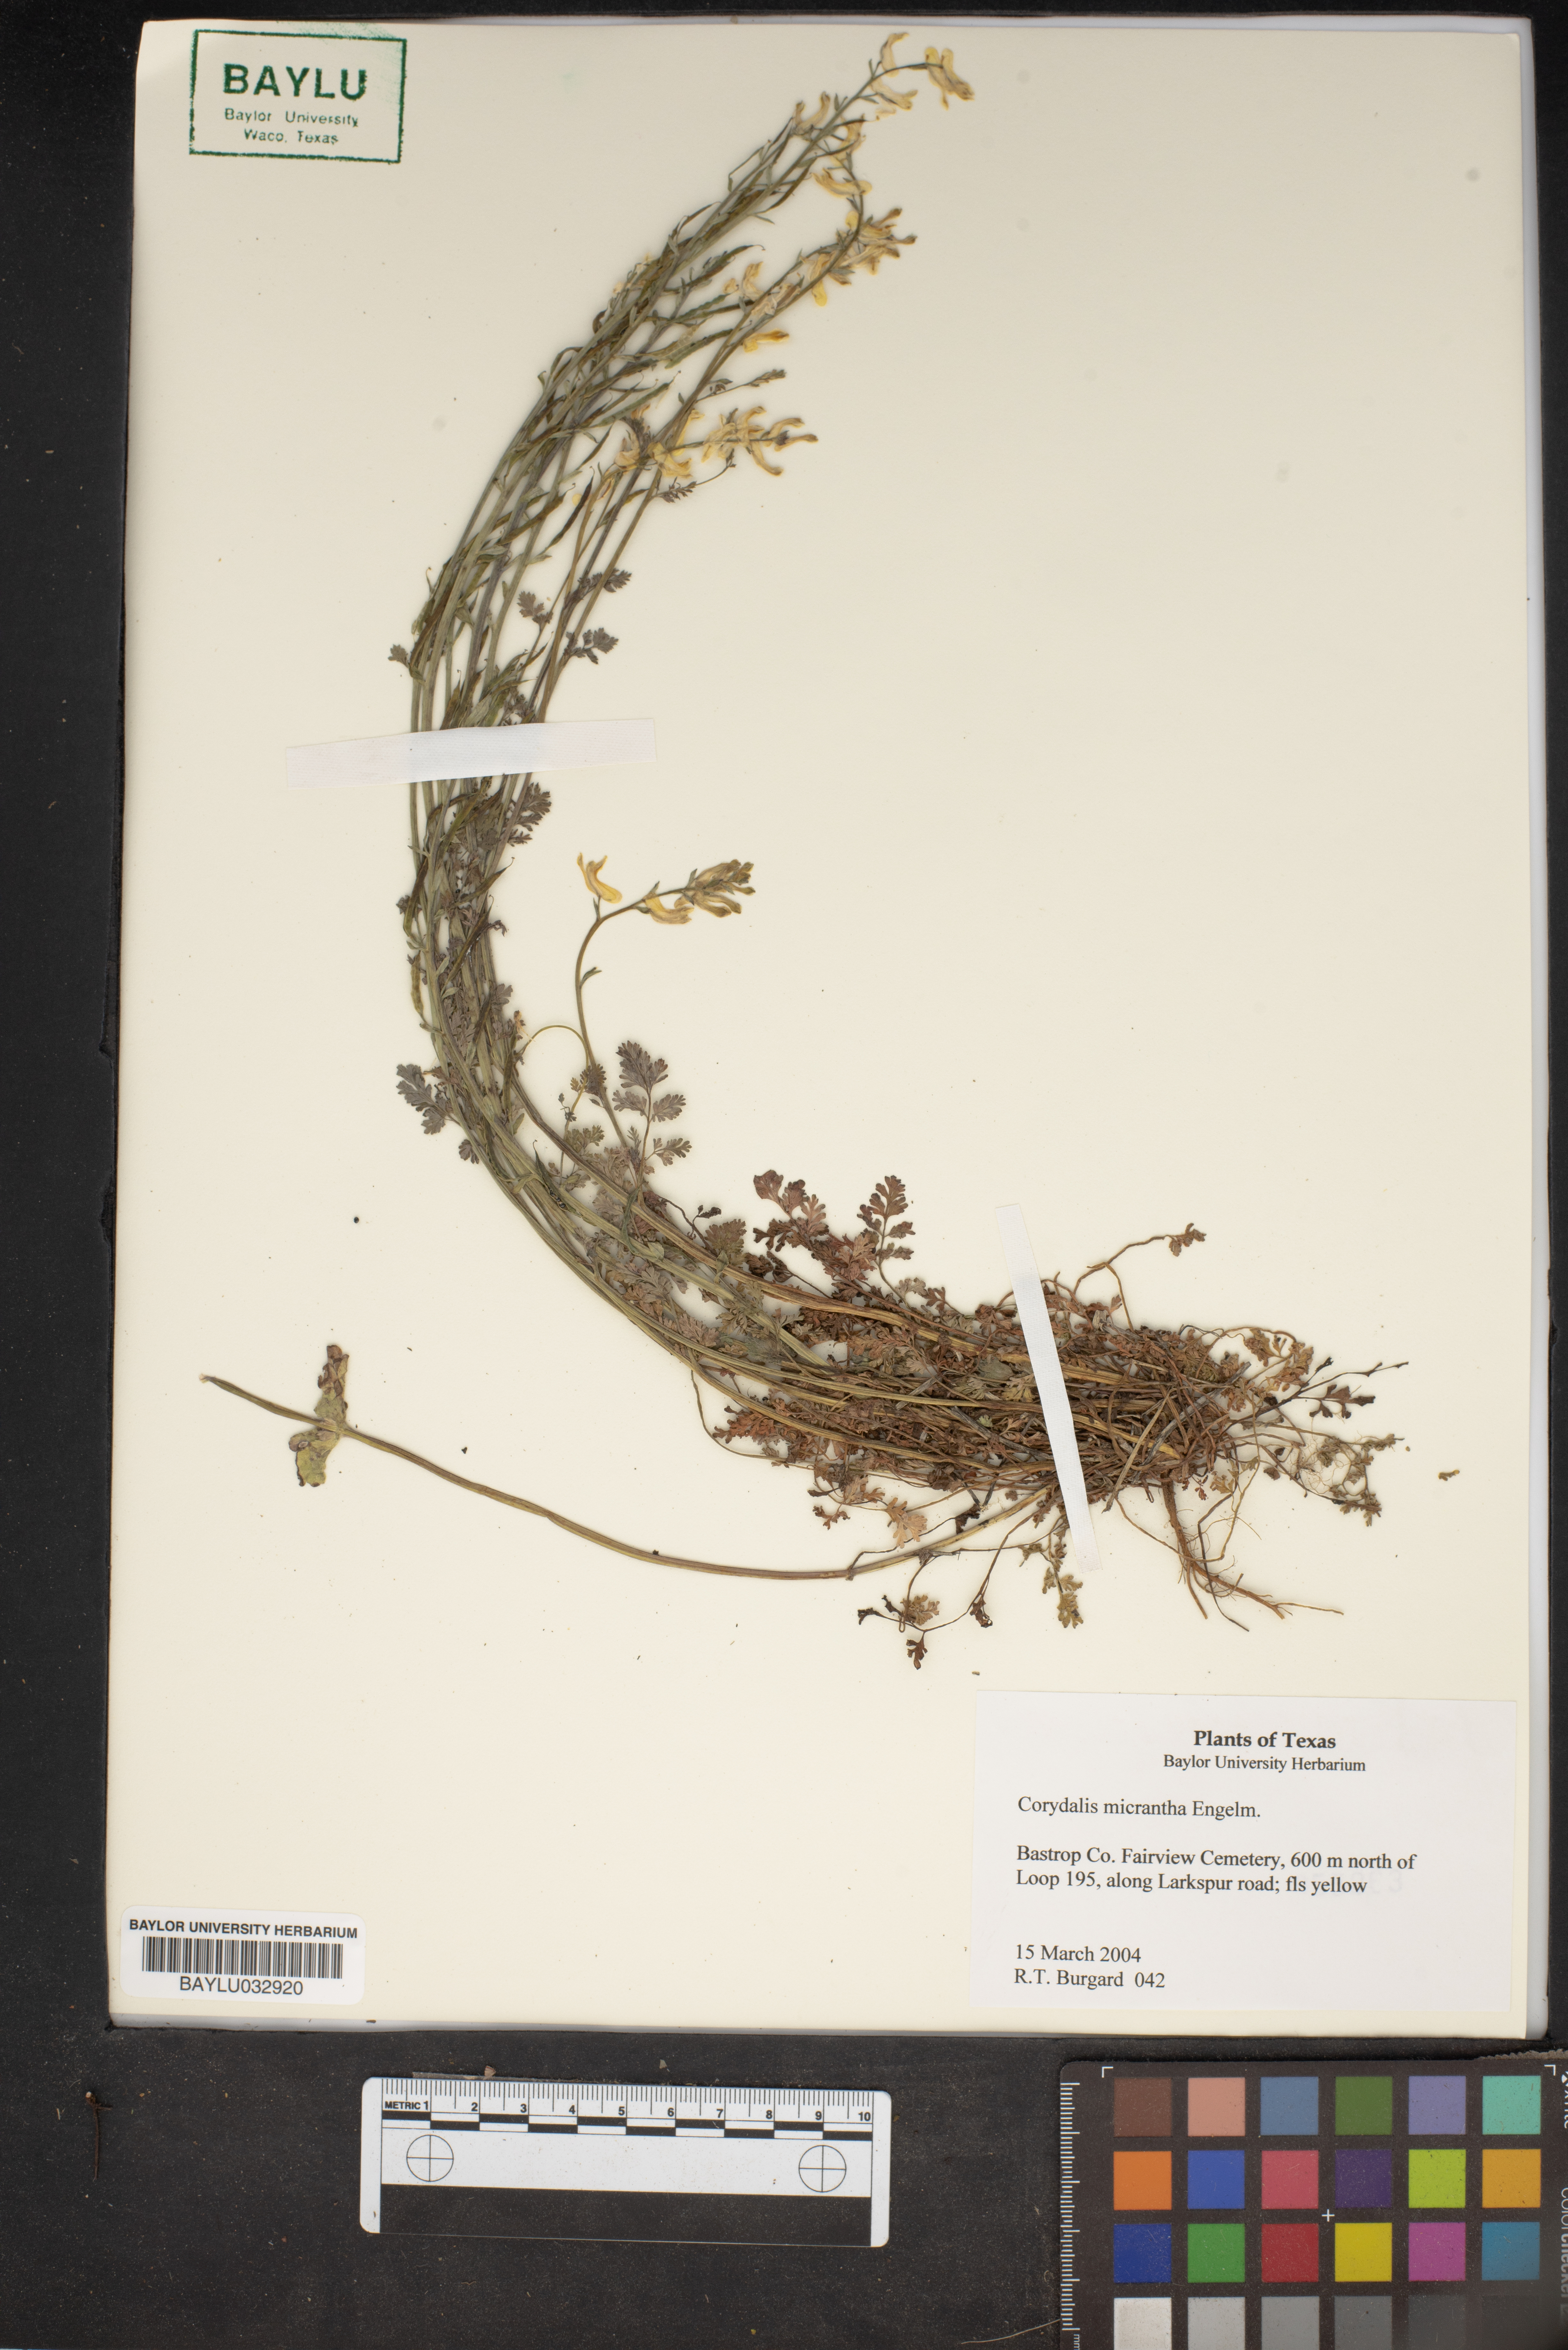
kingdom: Plantae
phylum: Tracheophyta
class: Magnoliopsida
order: Ranunculales
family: Papaveraceae
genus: Corydalis
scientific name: Corydalis micrantha
